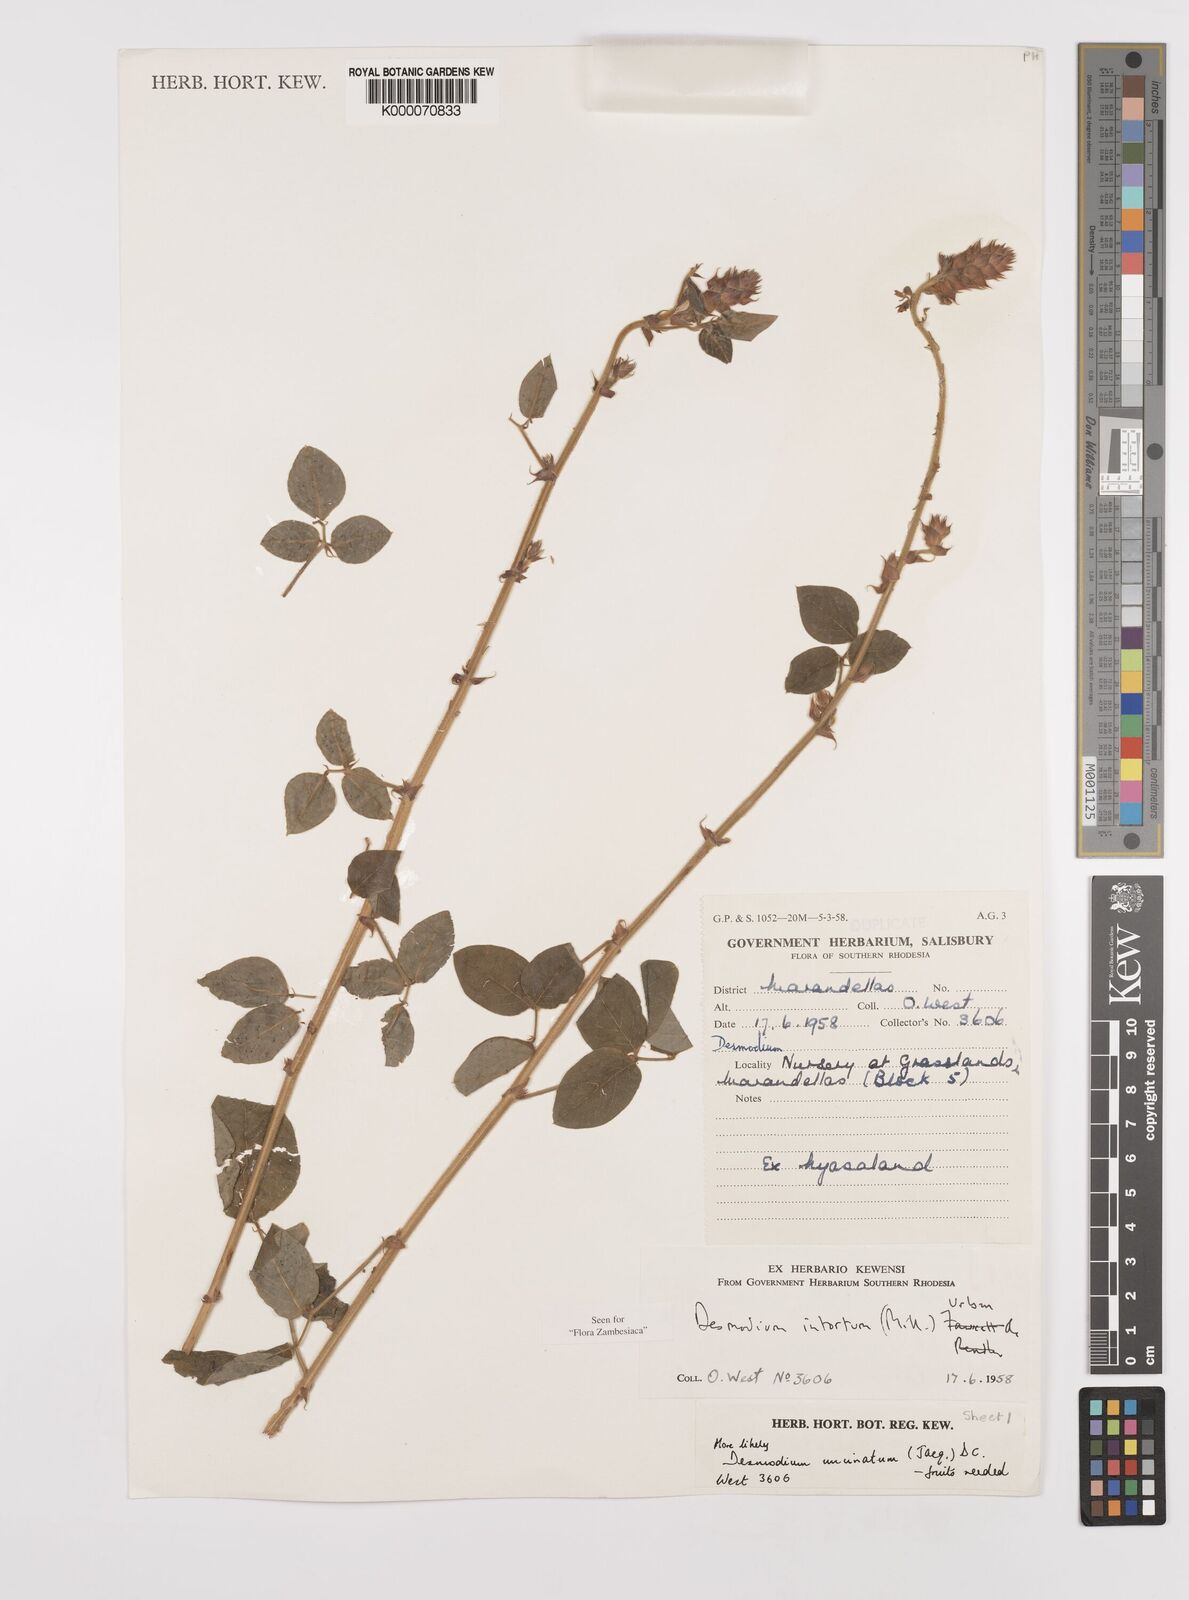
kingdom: Plantae
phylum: Tracheophyta
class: Magnoliopsida
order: Fabales
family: Fabaceae
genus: Desmodium
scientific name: Desmodium intortum
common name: Greenleaf ticktrefoil
